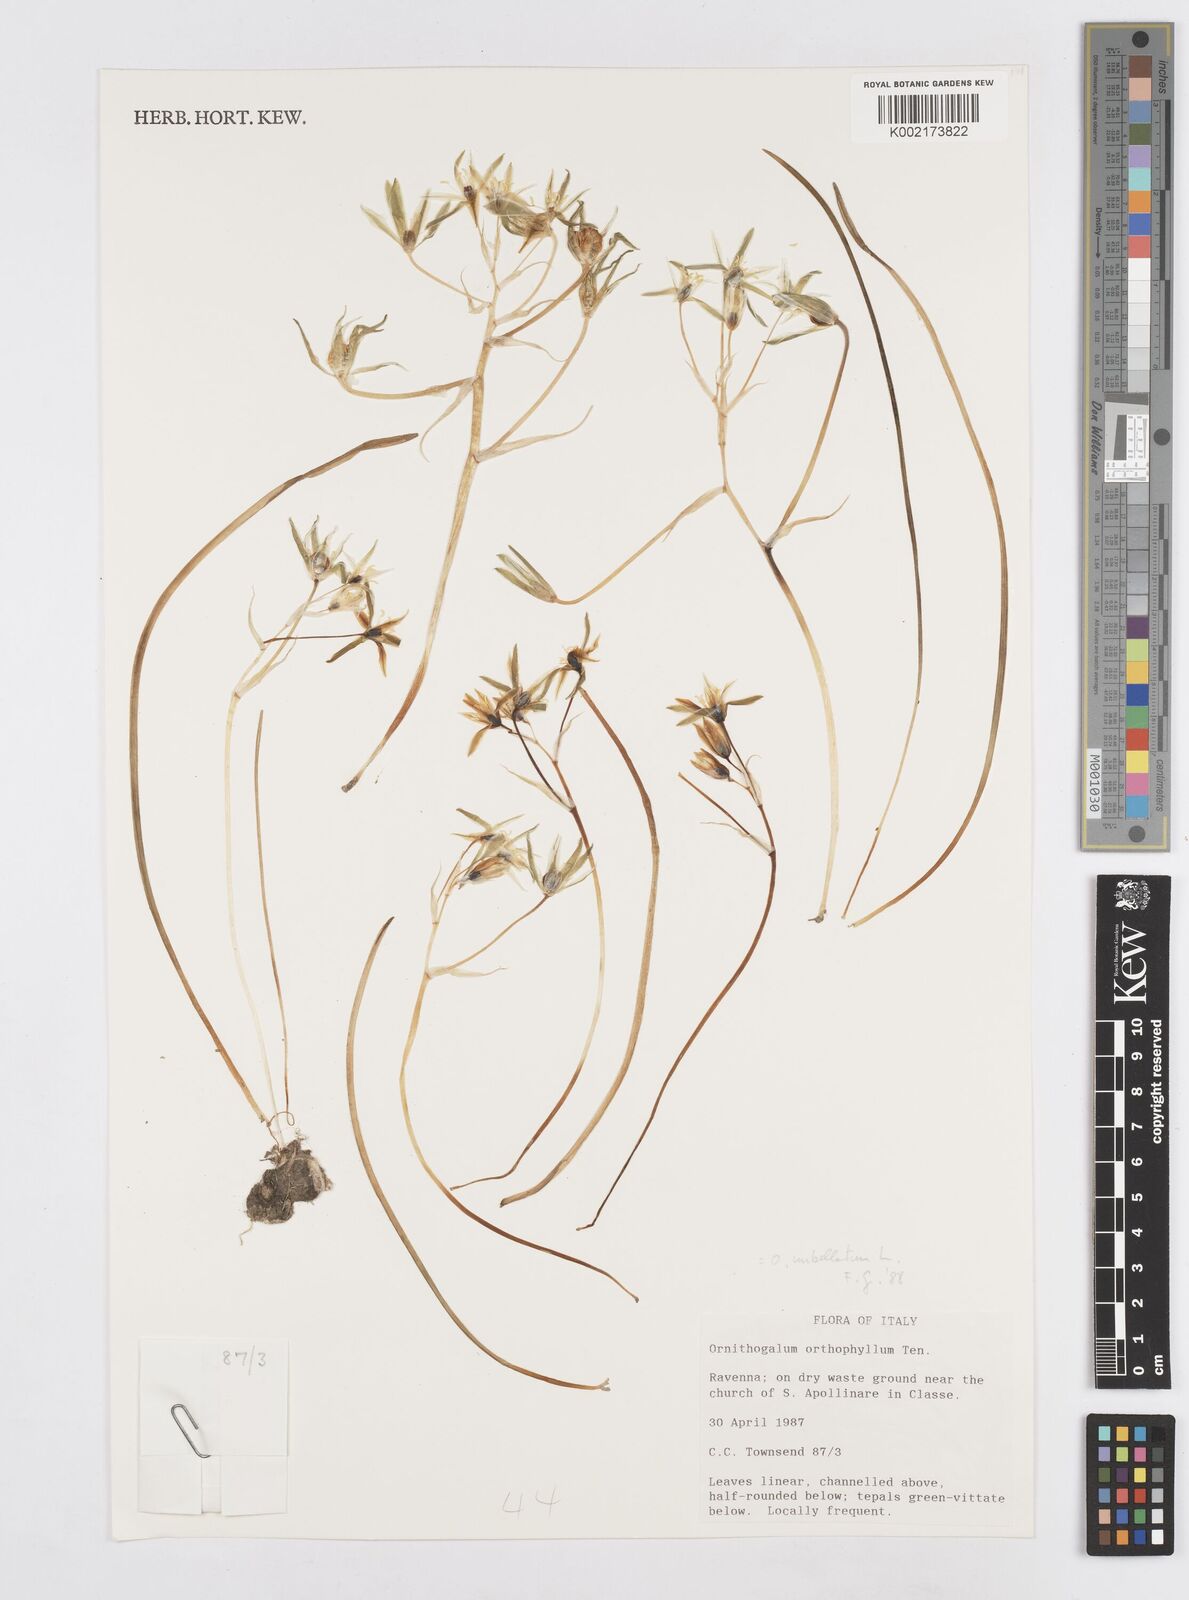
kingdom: Plantae
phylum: Tracheophyta
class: Liliopsida
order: Asparagales
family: Asparagaceae
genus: Ornithogalum
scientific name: Ornithogalum umbellatum
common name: Garden star-of-bethlehem
